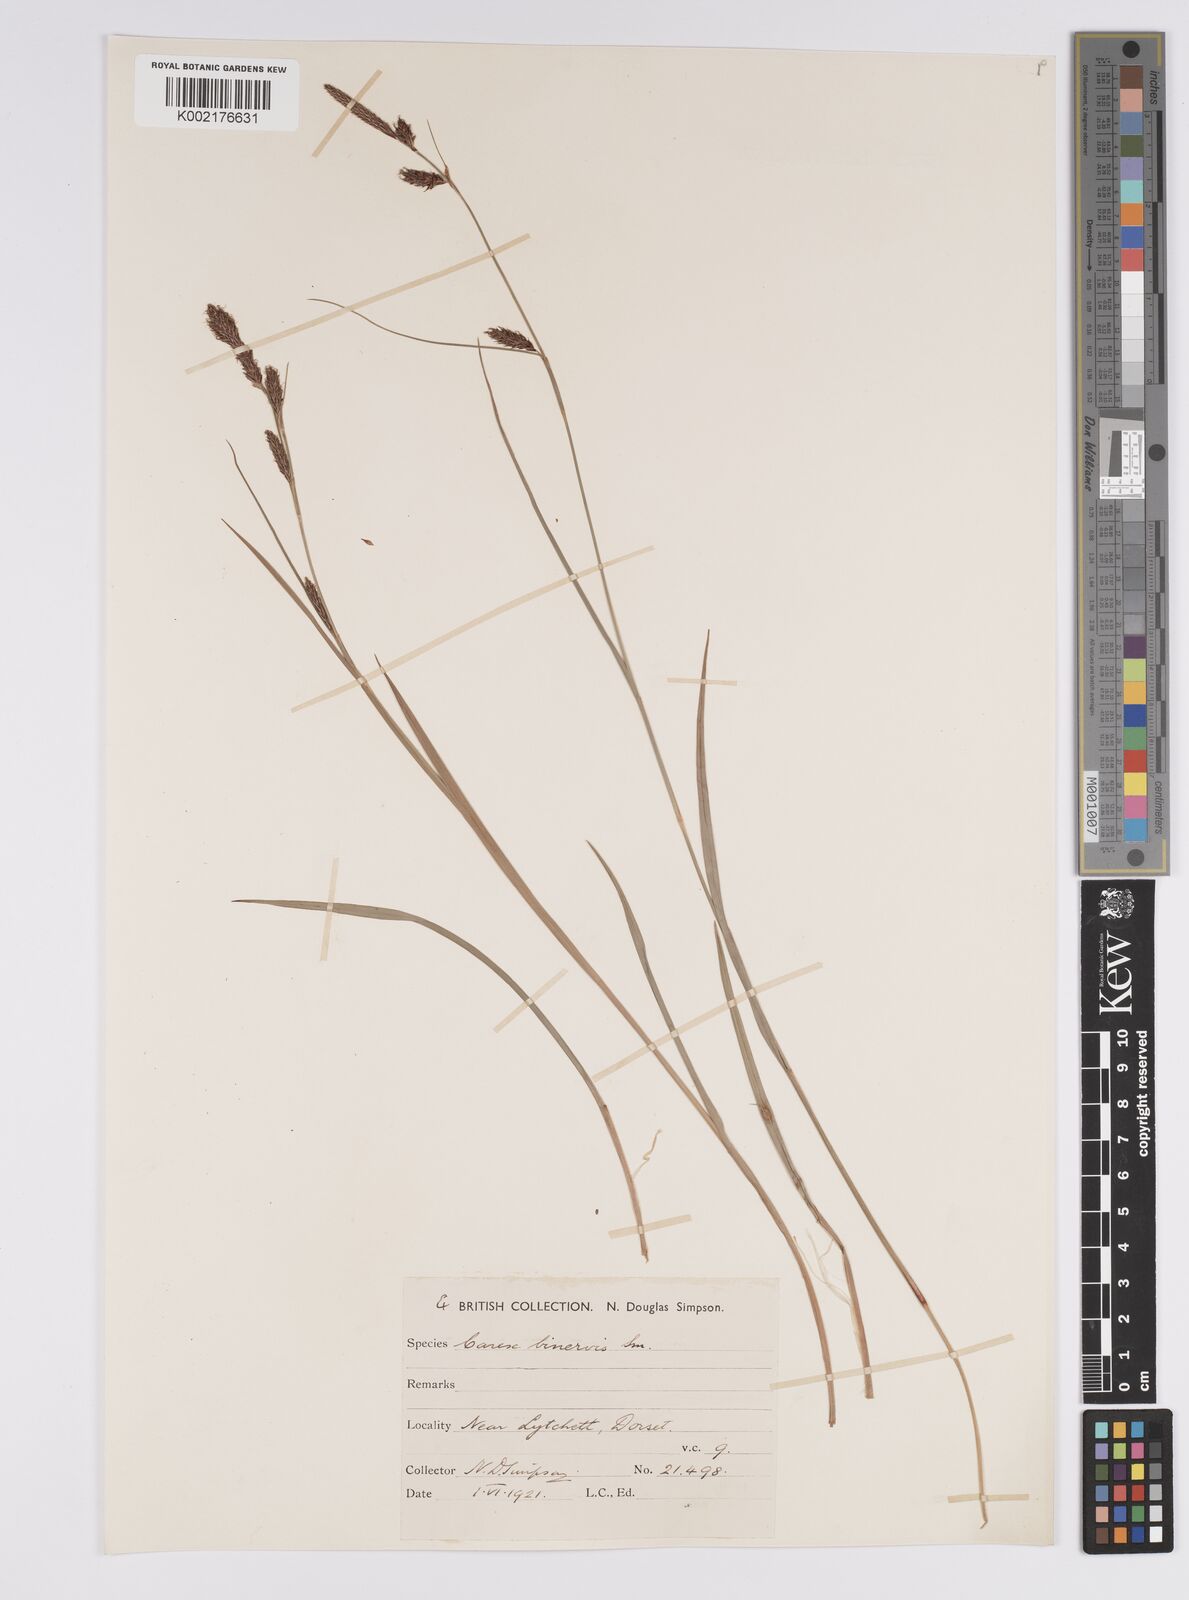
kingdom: Plantae
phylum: Tracheophyta
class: Liliopsida
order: Poales
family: Cyperaceae
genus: Carex
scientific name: Carex binervis
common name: Green-ribbed sedge
